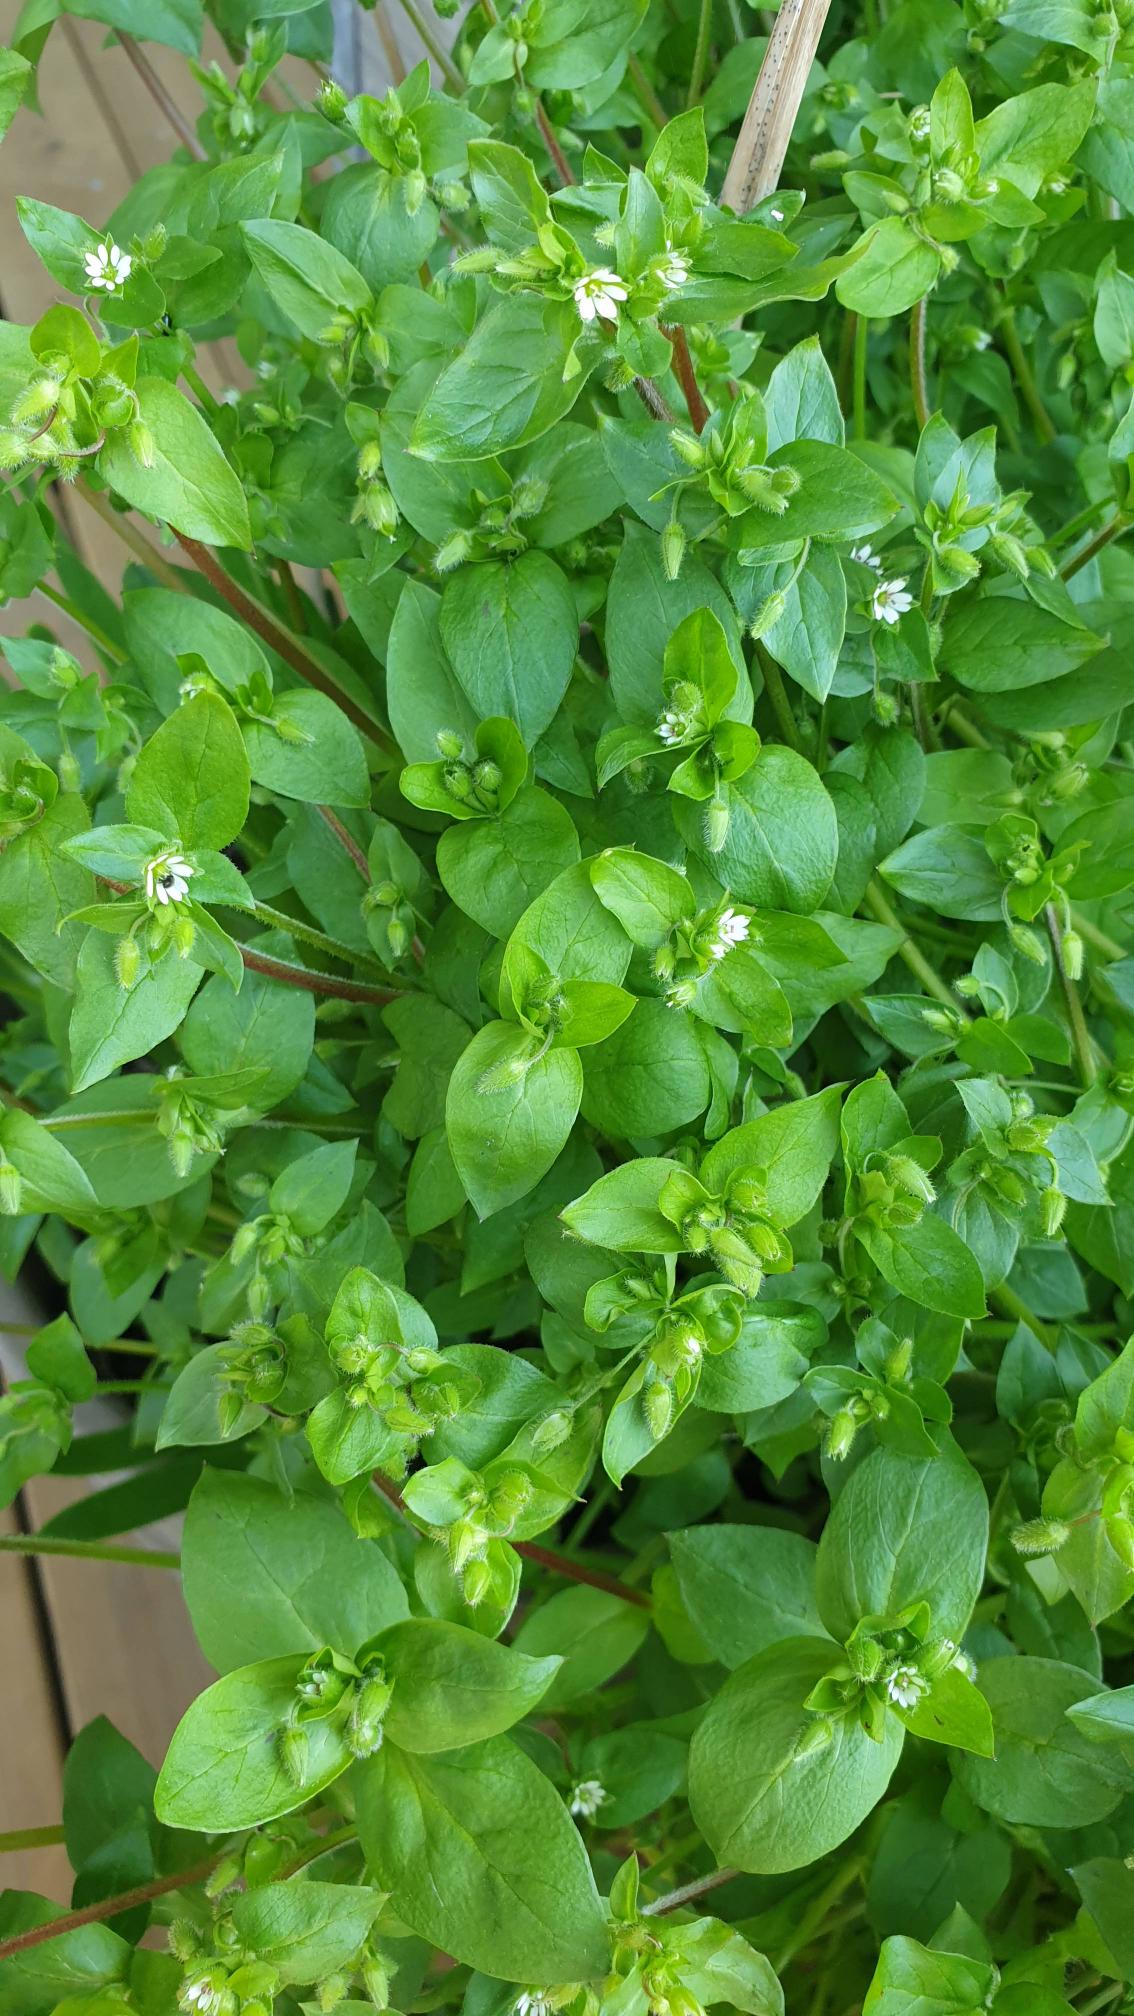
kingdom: Plantae
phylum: Tracheophyta
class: Magnoliopsida
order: Caryophyllales
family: Caryophyllaceae
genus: Stellaria
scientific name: Stellaria media
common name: Almindelig fuglegræs
